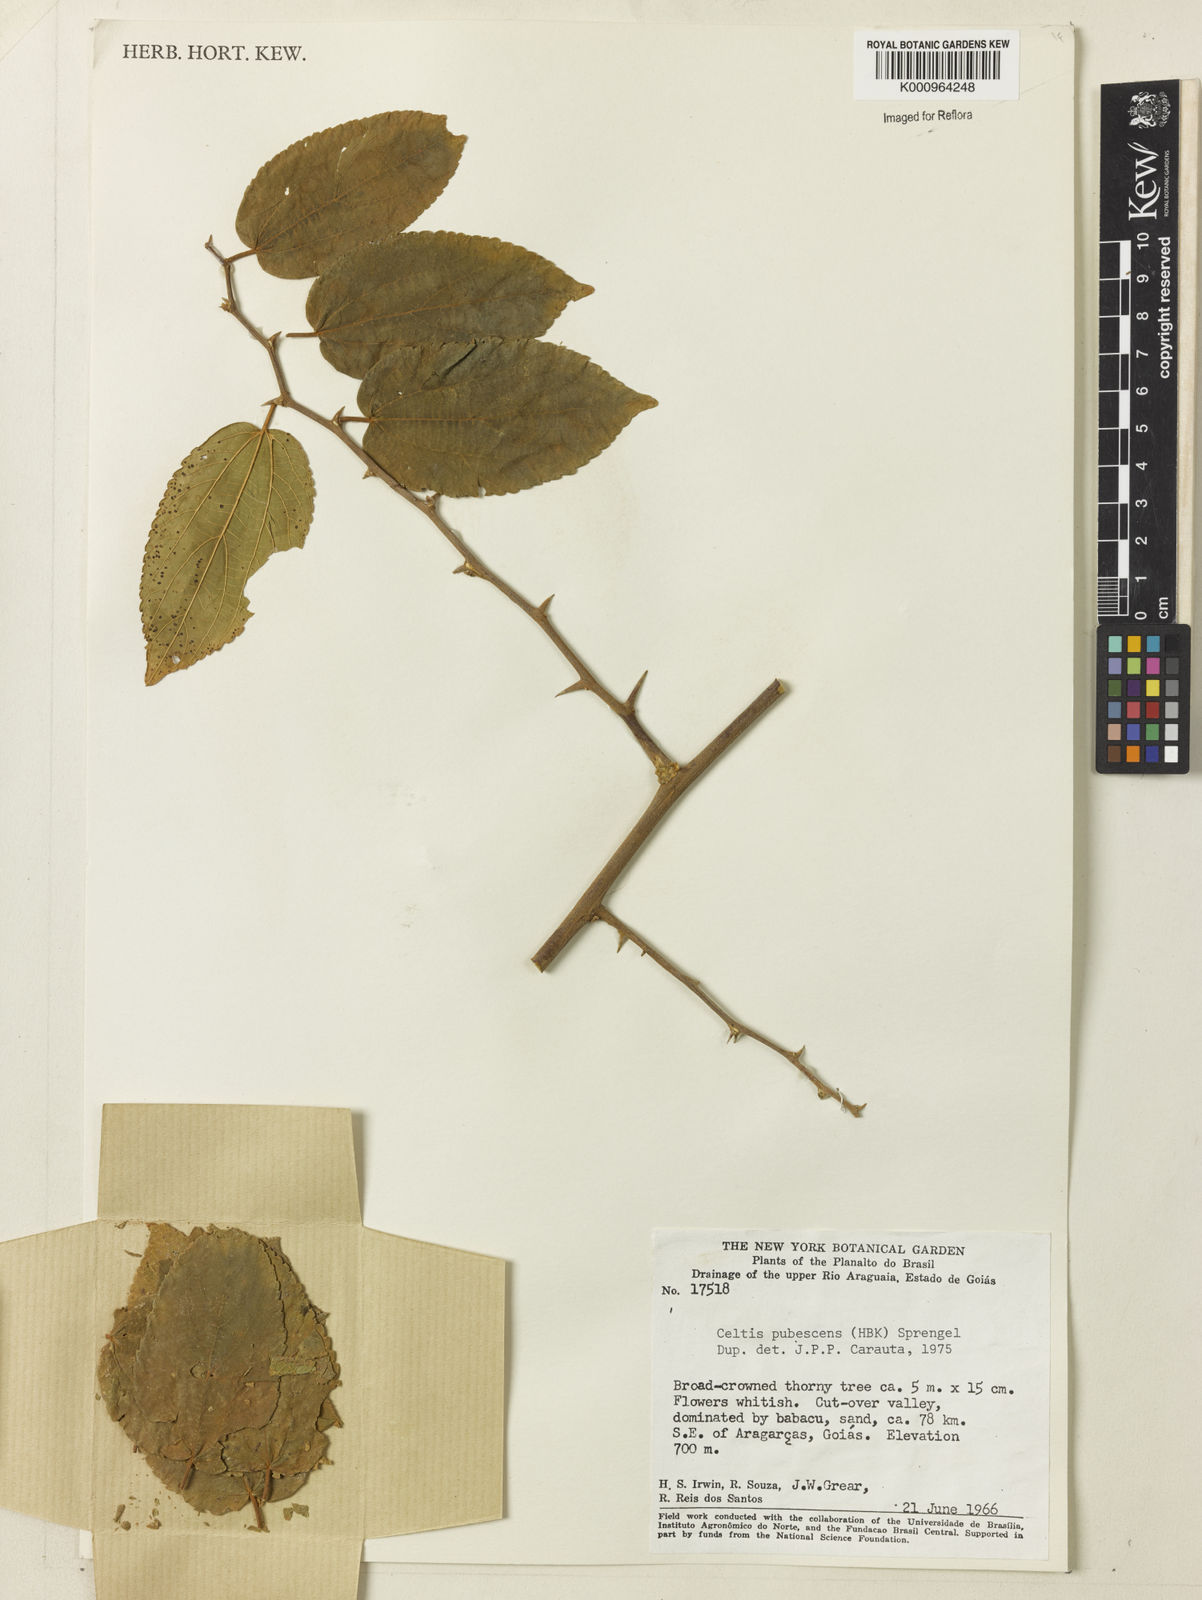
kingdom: Plantae
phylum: Tracheophyta
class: Magnoliopsida
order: Rosales
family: Cannabaceae
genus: Celtis
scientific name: Celtis iguanaea
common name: Iguana hackberry
